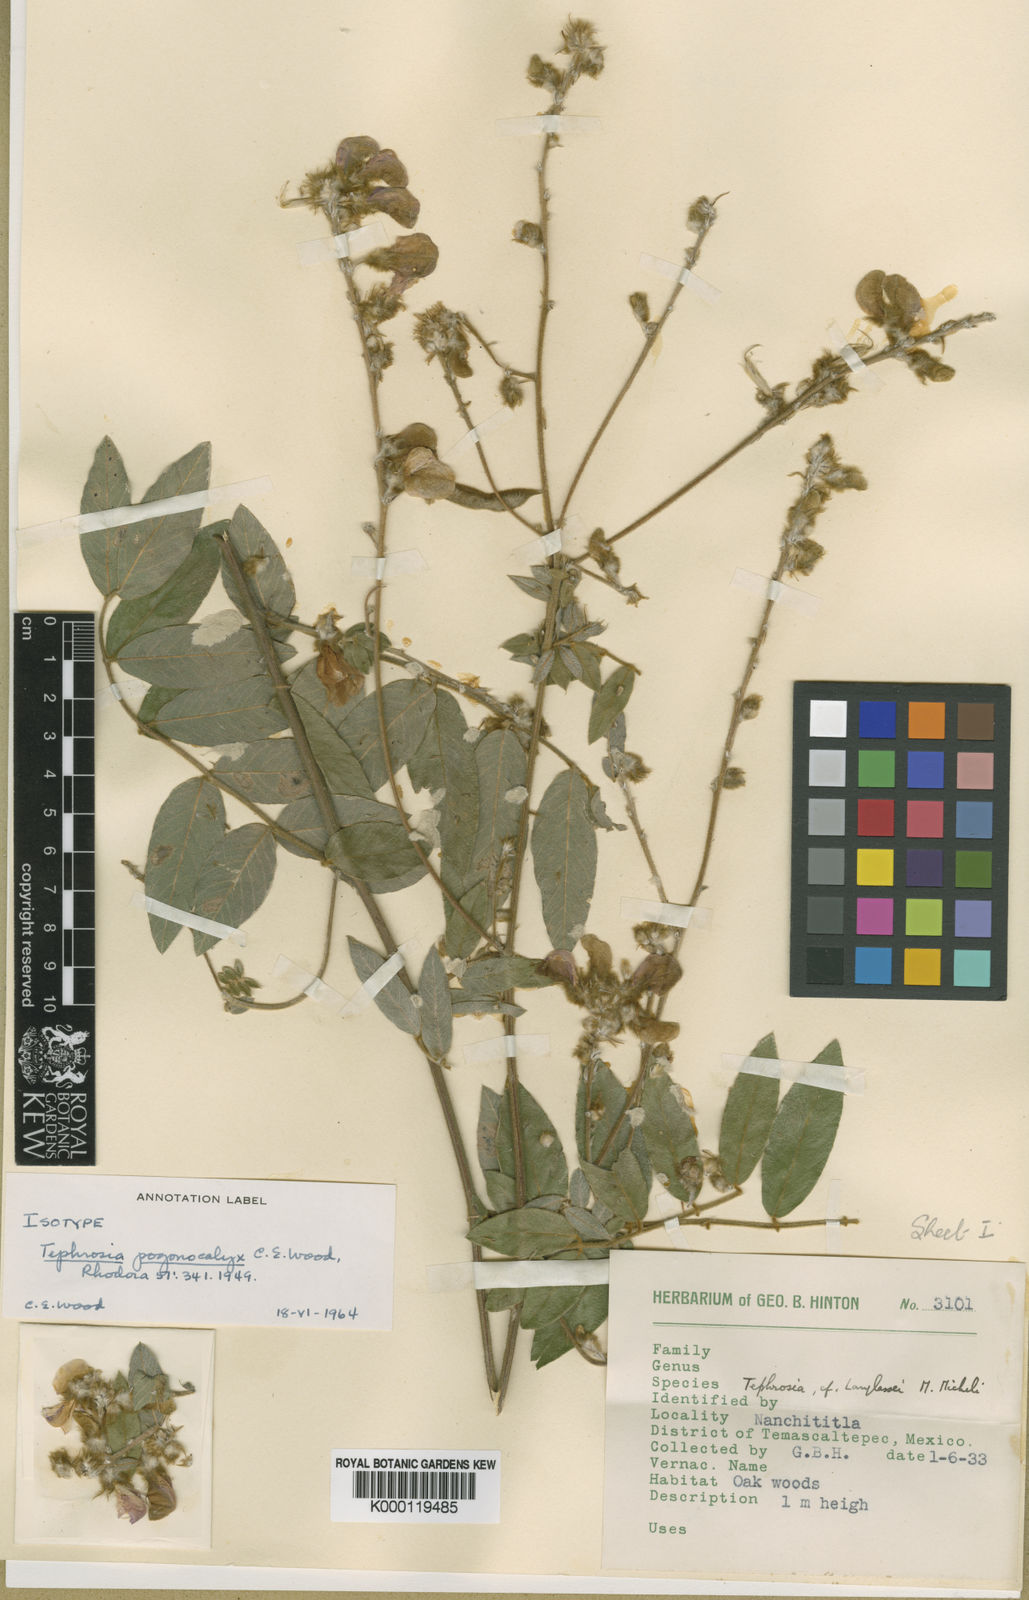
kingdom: Plantae
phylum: Tracheophyta
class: Magnoliopsida
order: Fabales
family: Fabaceae
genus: Tephrosia
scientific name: Tephrosia pogonocalyx
